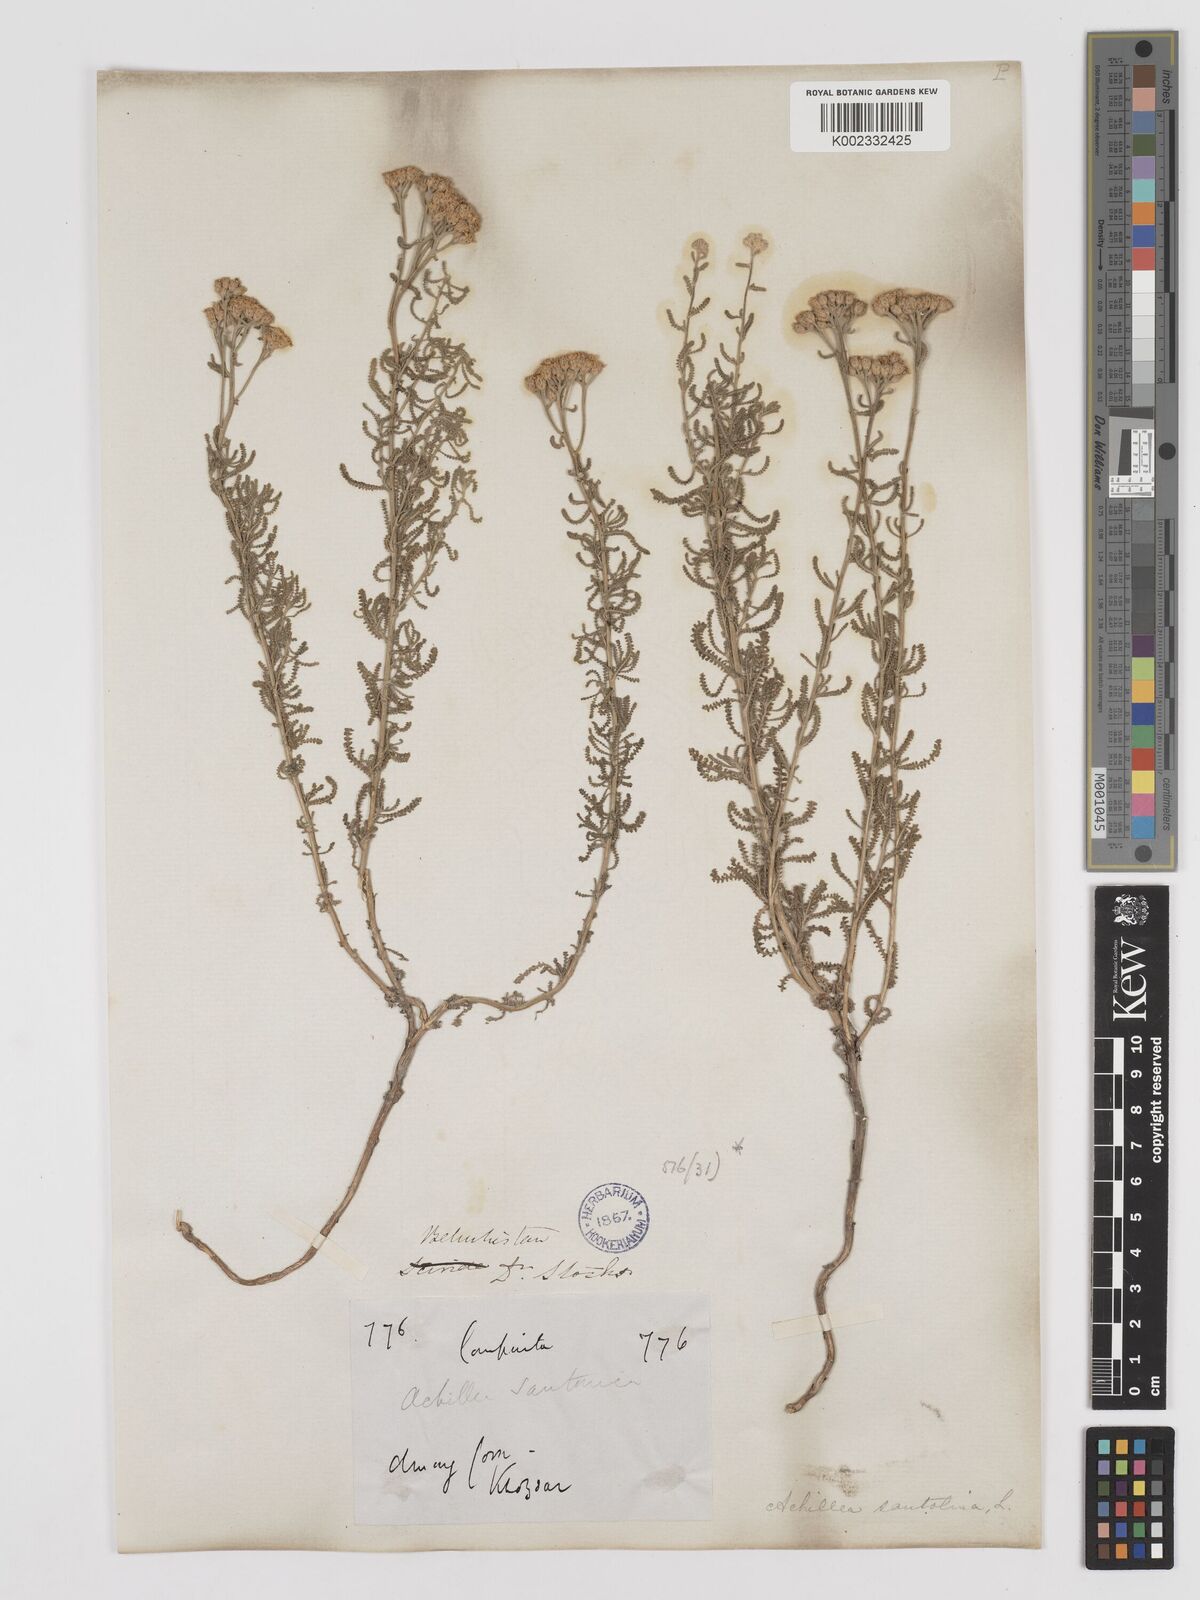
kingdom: Plantae
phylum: Tracheophyta
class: Magnoliopsida
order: Asterales
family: Asteraceae
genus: Achillea
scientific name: Achillea tenuifolia
